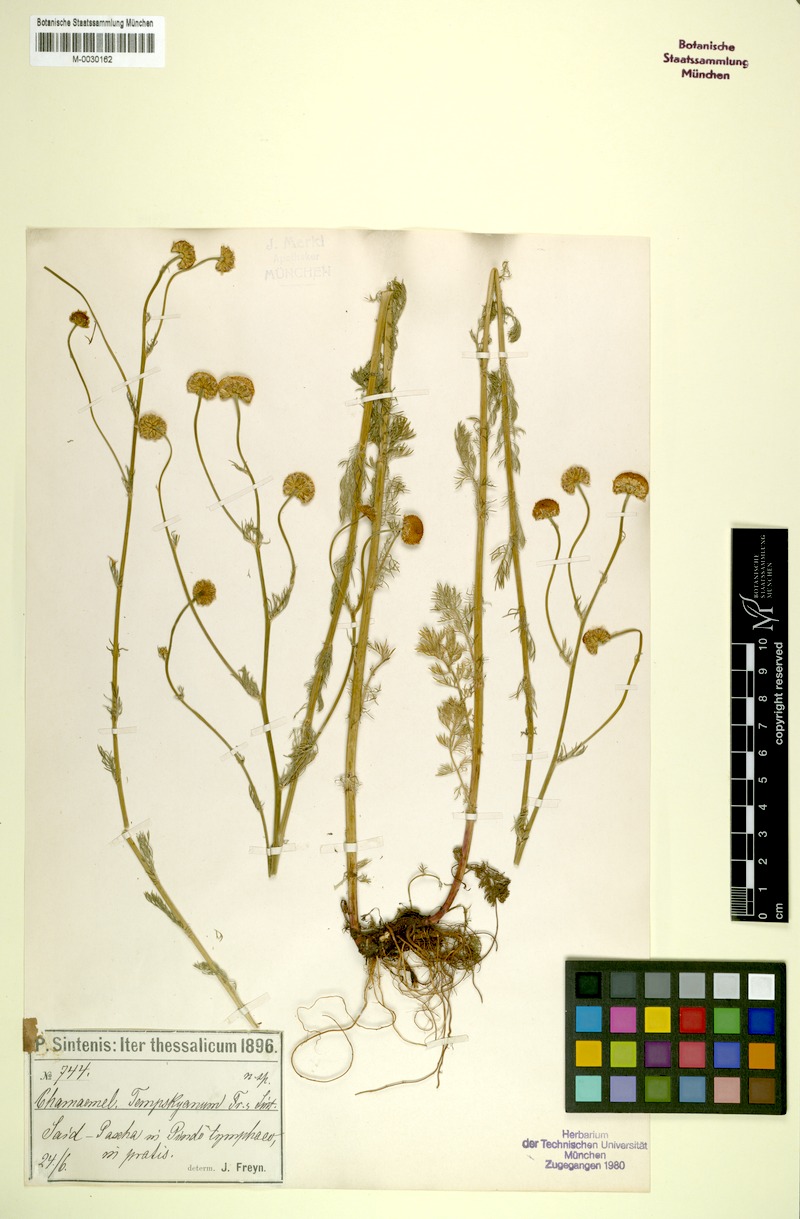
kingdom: Plantae
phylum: Tracheophyta
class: Magnoliopsida
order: Asterales
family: Asteraceae
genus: Tripleurospermum
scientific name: Tripleurospermum tempskyanum
